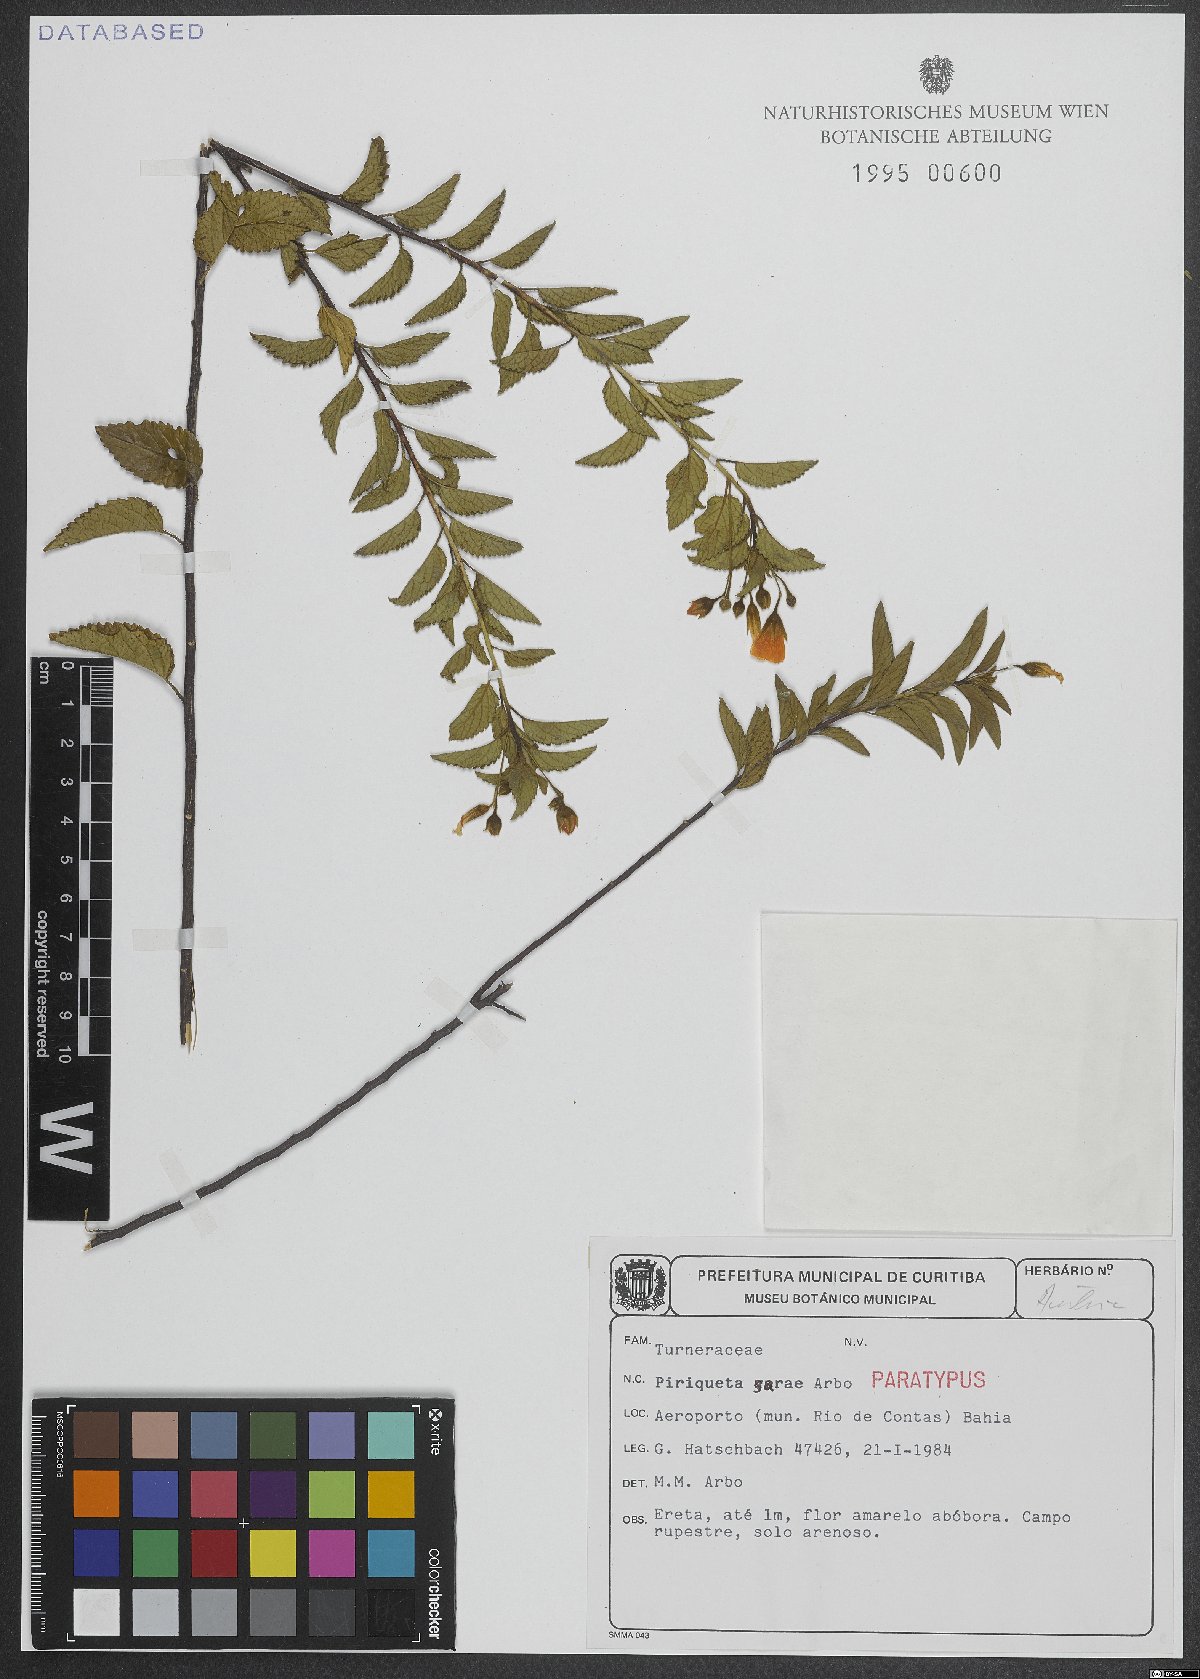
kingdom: Plantae
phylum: Tracheophyta
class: Magnoliopsida
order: Malpighiales
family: Turneraceae
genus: Piriqueta
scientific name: Piriqueta sarae
